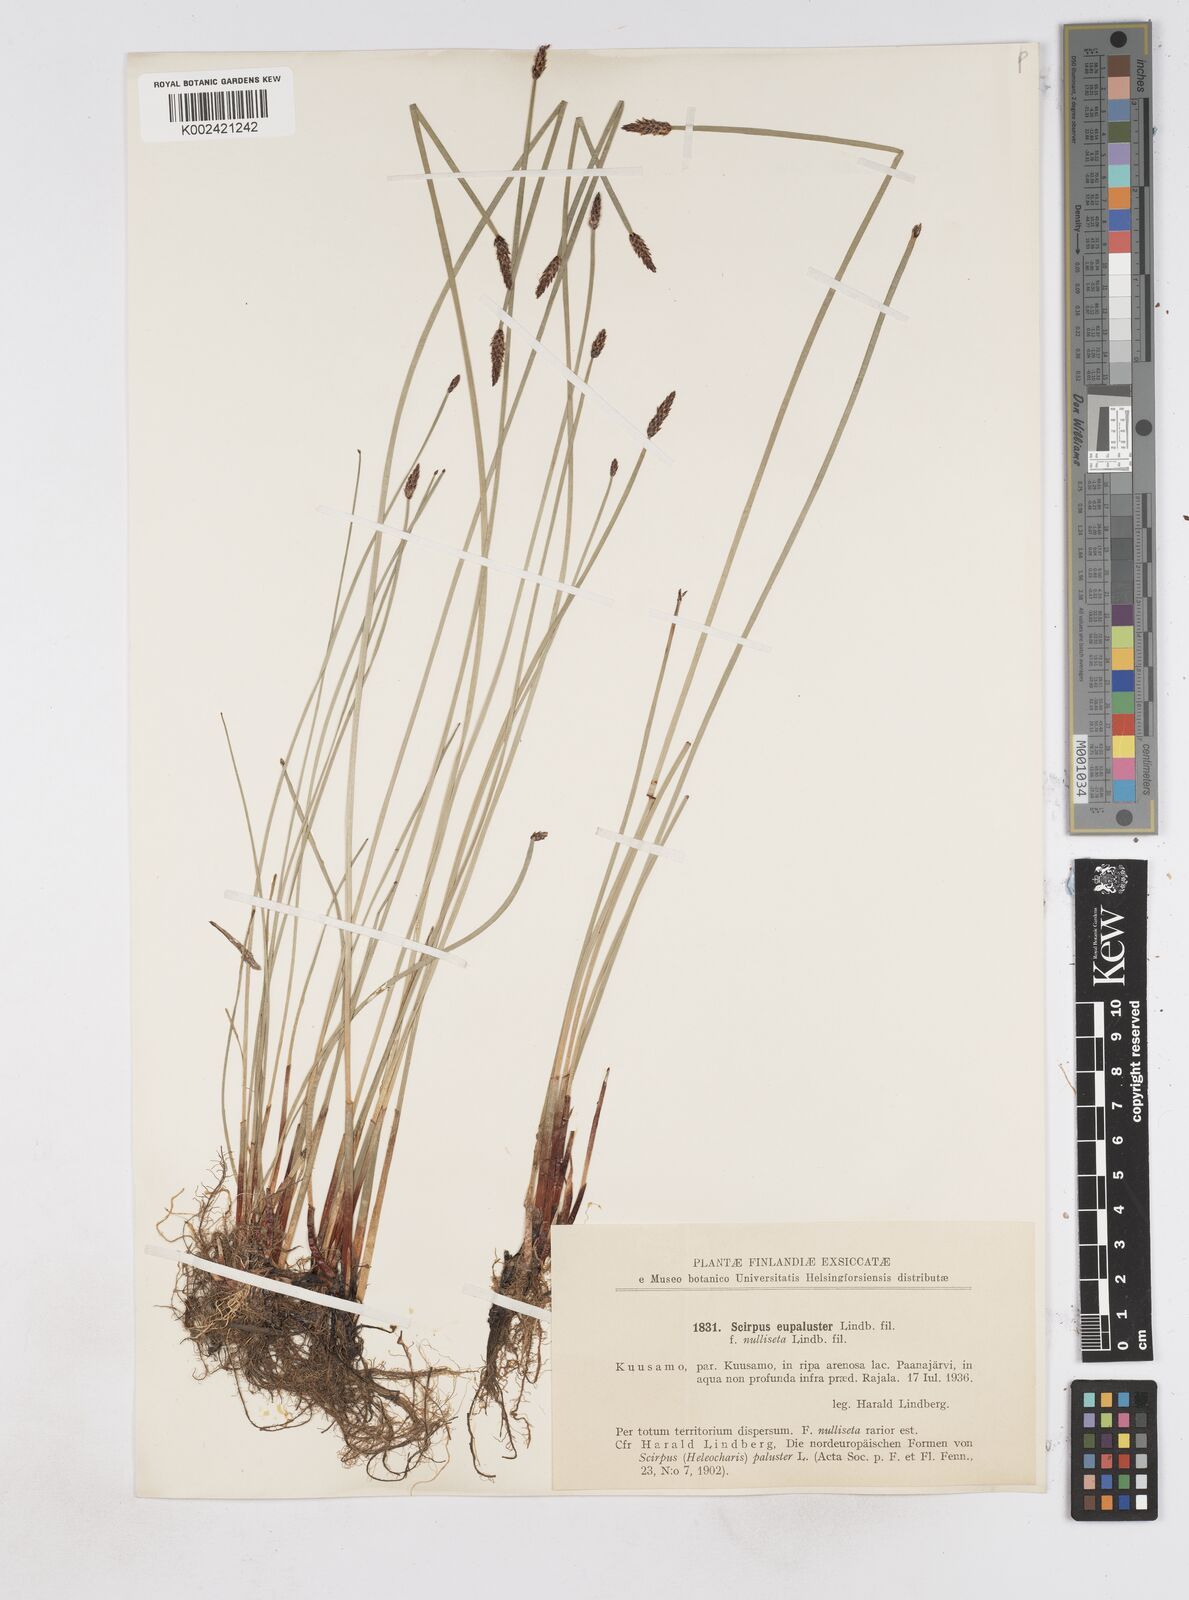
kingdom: Plantae
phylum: Tracheophyta
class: Liliopsida
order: Poales
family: Cyperaceae
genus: Eleocharis
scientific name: Eleocharis palustris
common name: Common spike-rush
